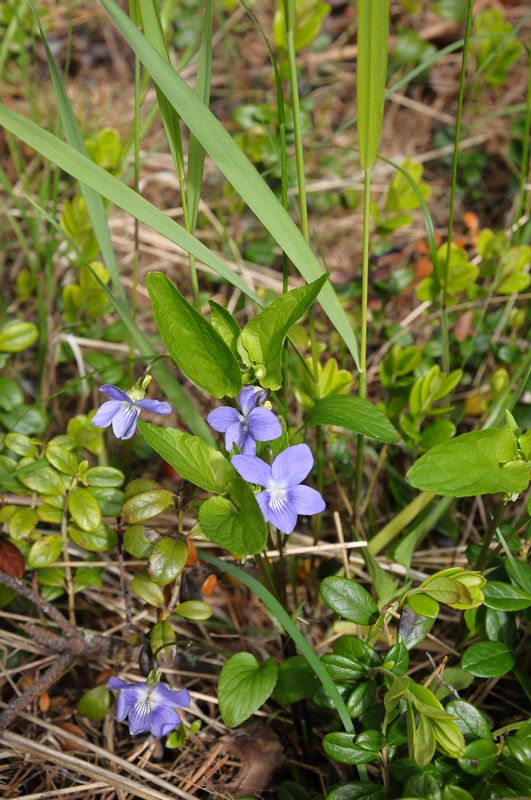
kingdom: Plantae
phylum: Tracheophyta
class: Magnoliopsida
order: Malpighiales
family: Violaceae
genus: Viola
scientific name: Viola canina
